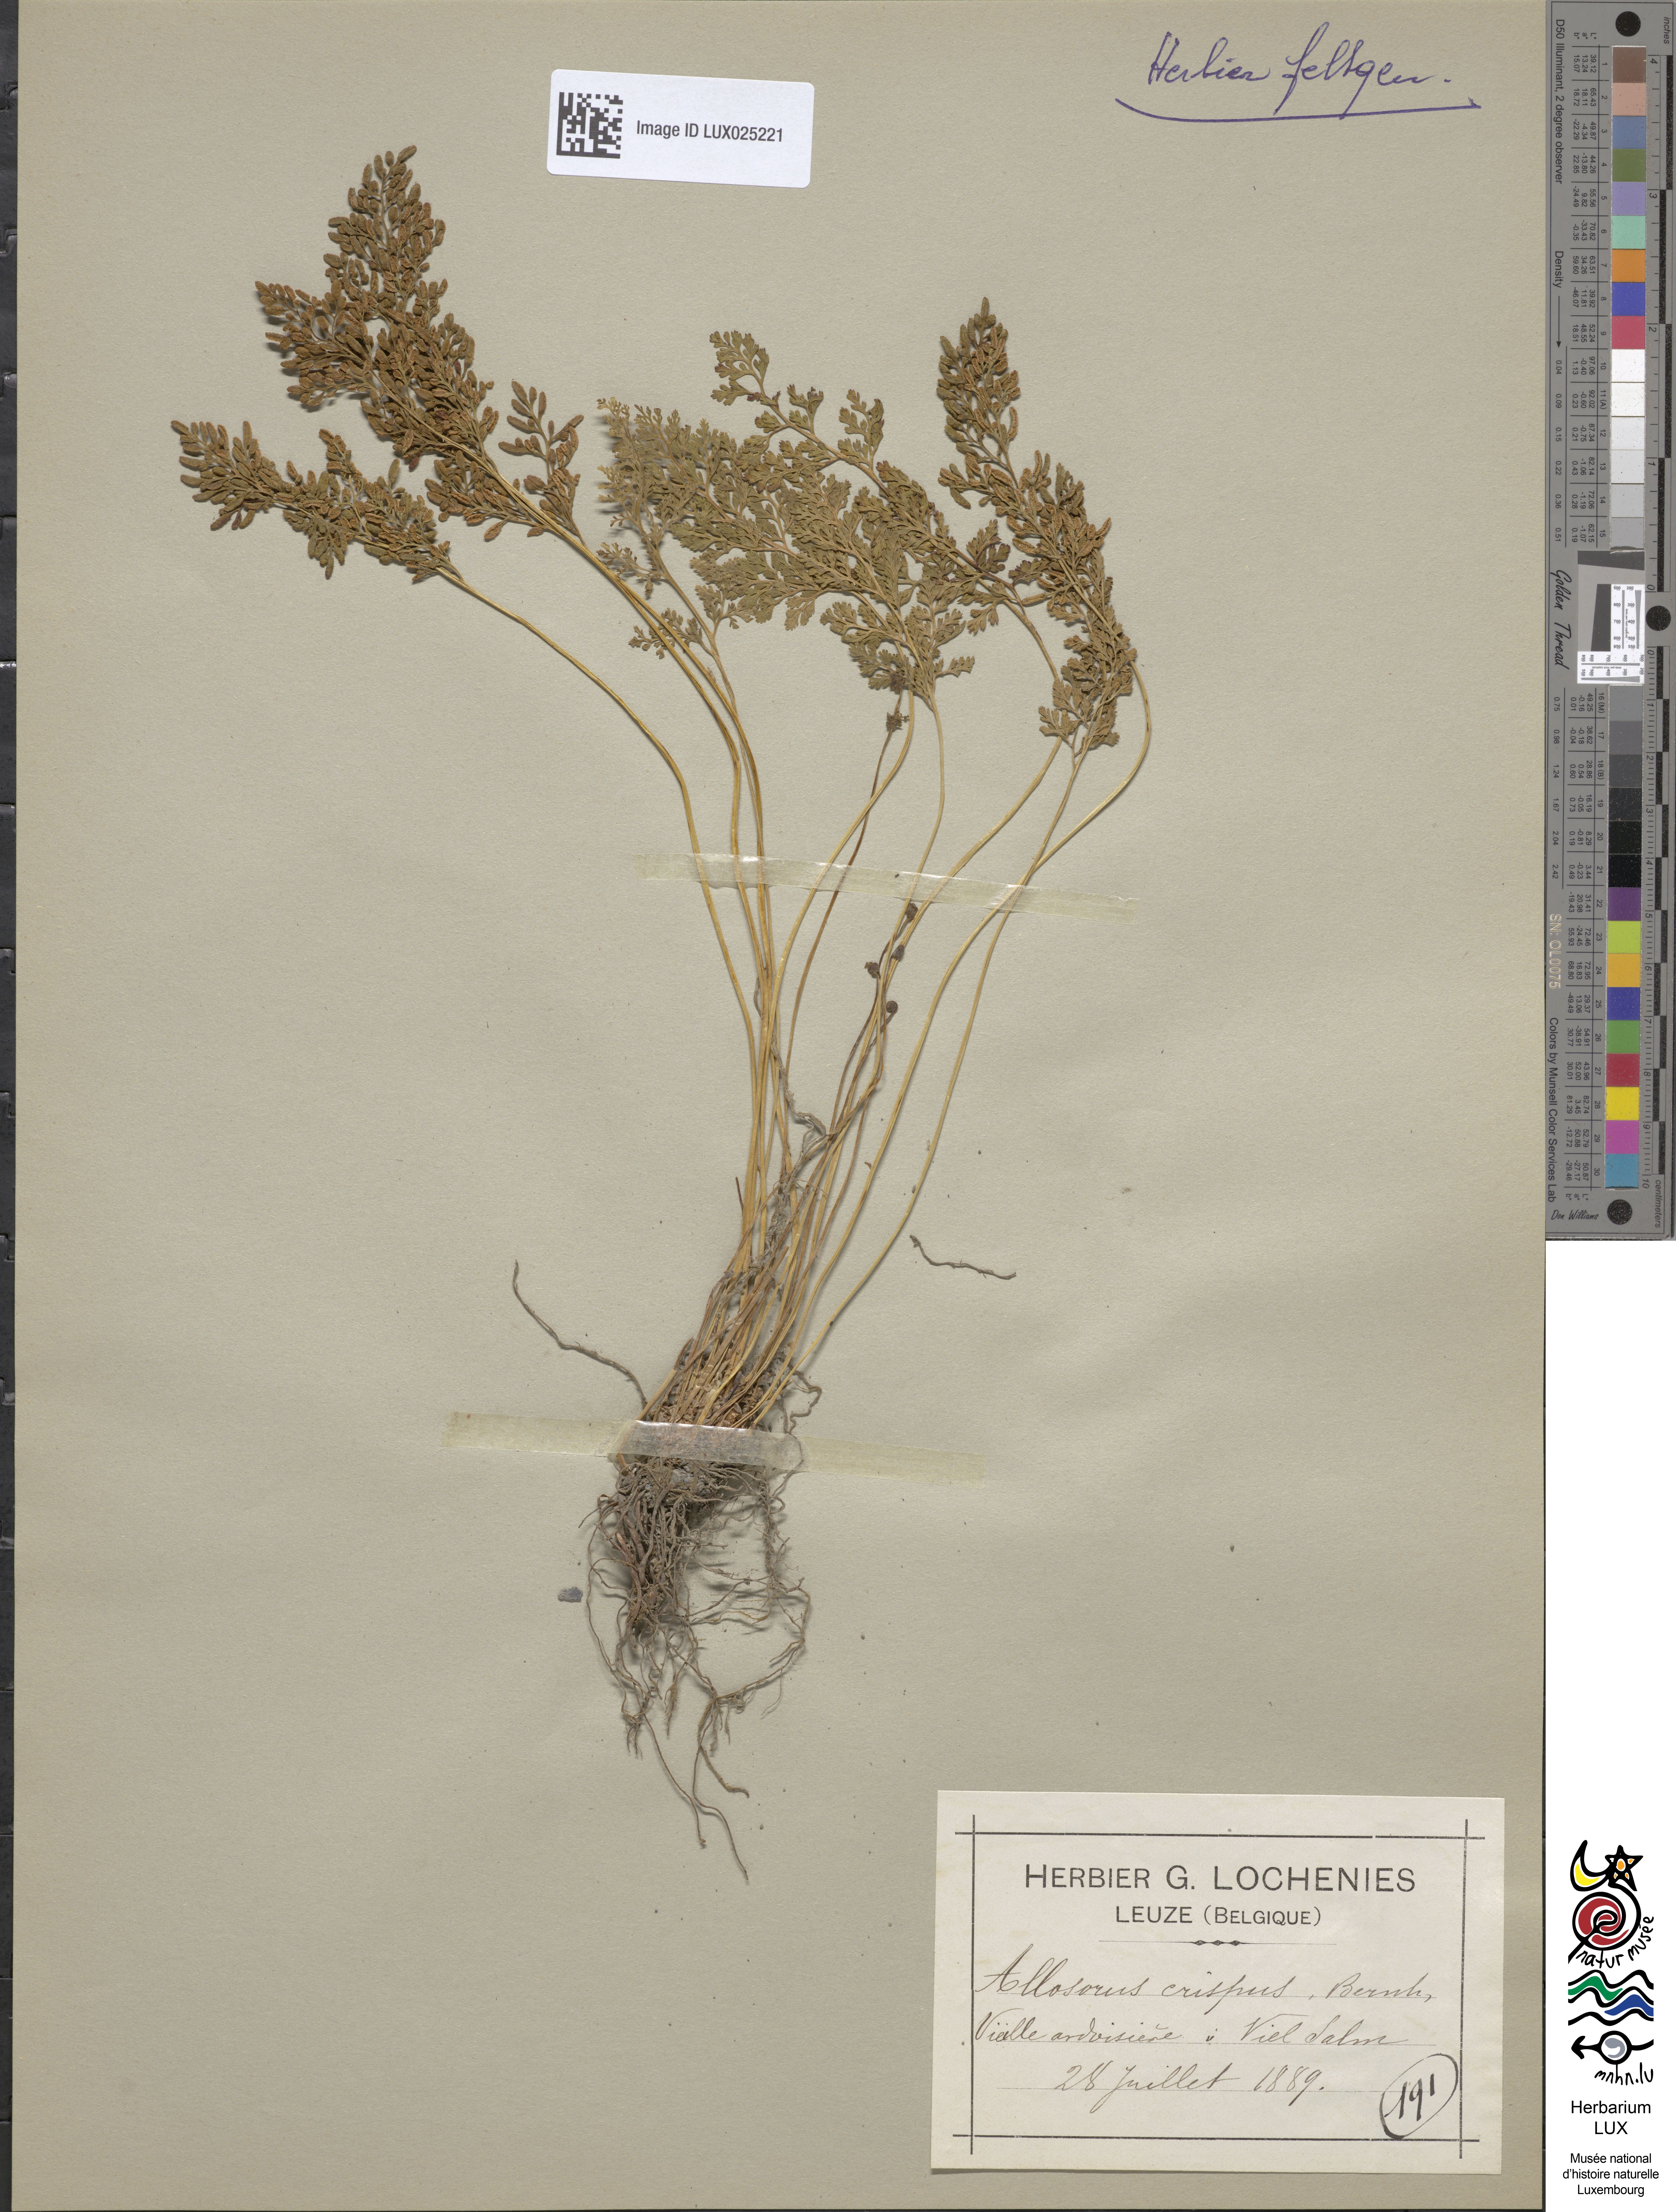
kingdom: Plantae
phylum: Tracheophyta
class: Polypodiopsida
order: Polypodiales
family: Pteridaceae
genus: Cryptogramma
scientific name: Cryptogramma crispa
